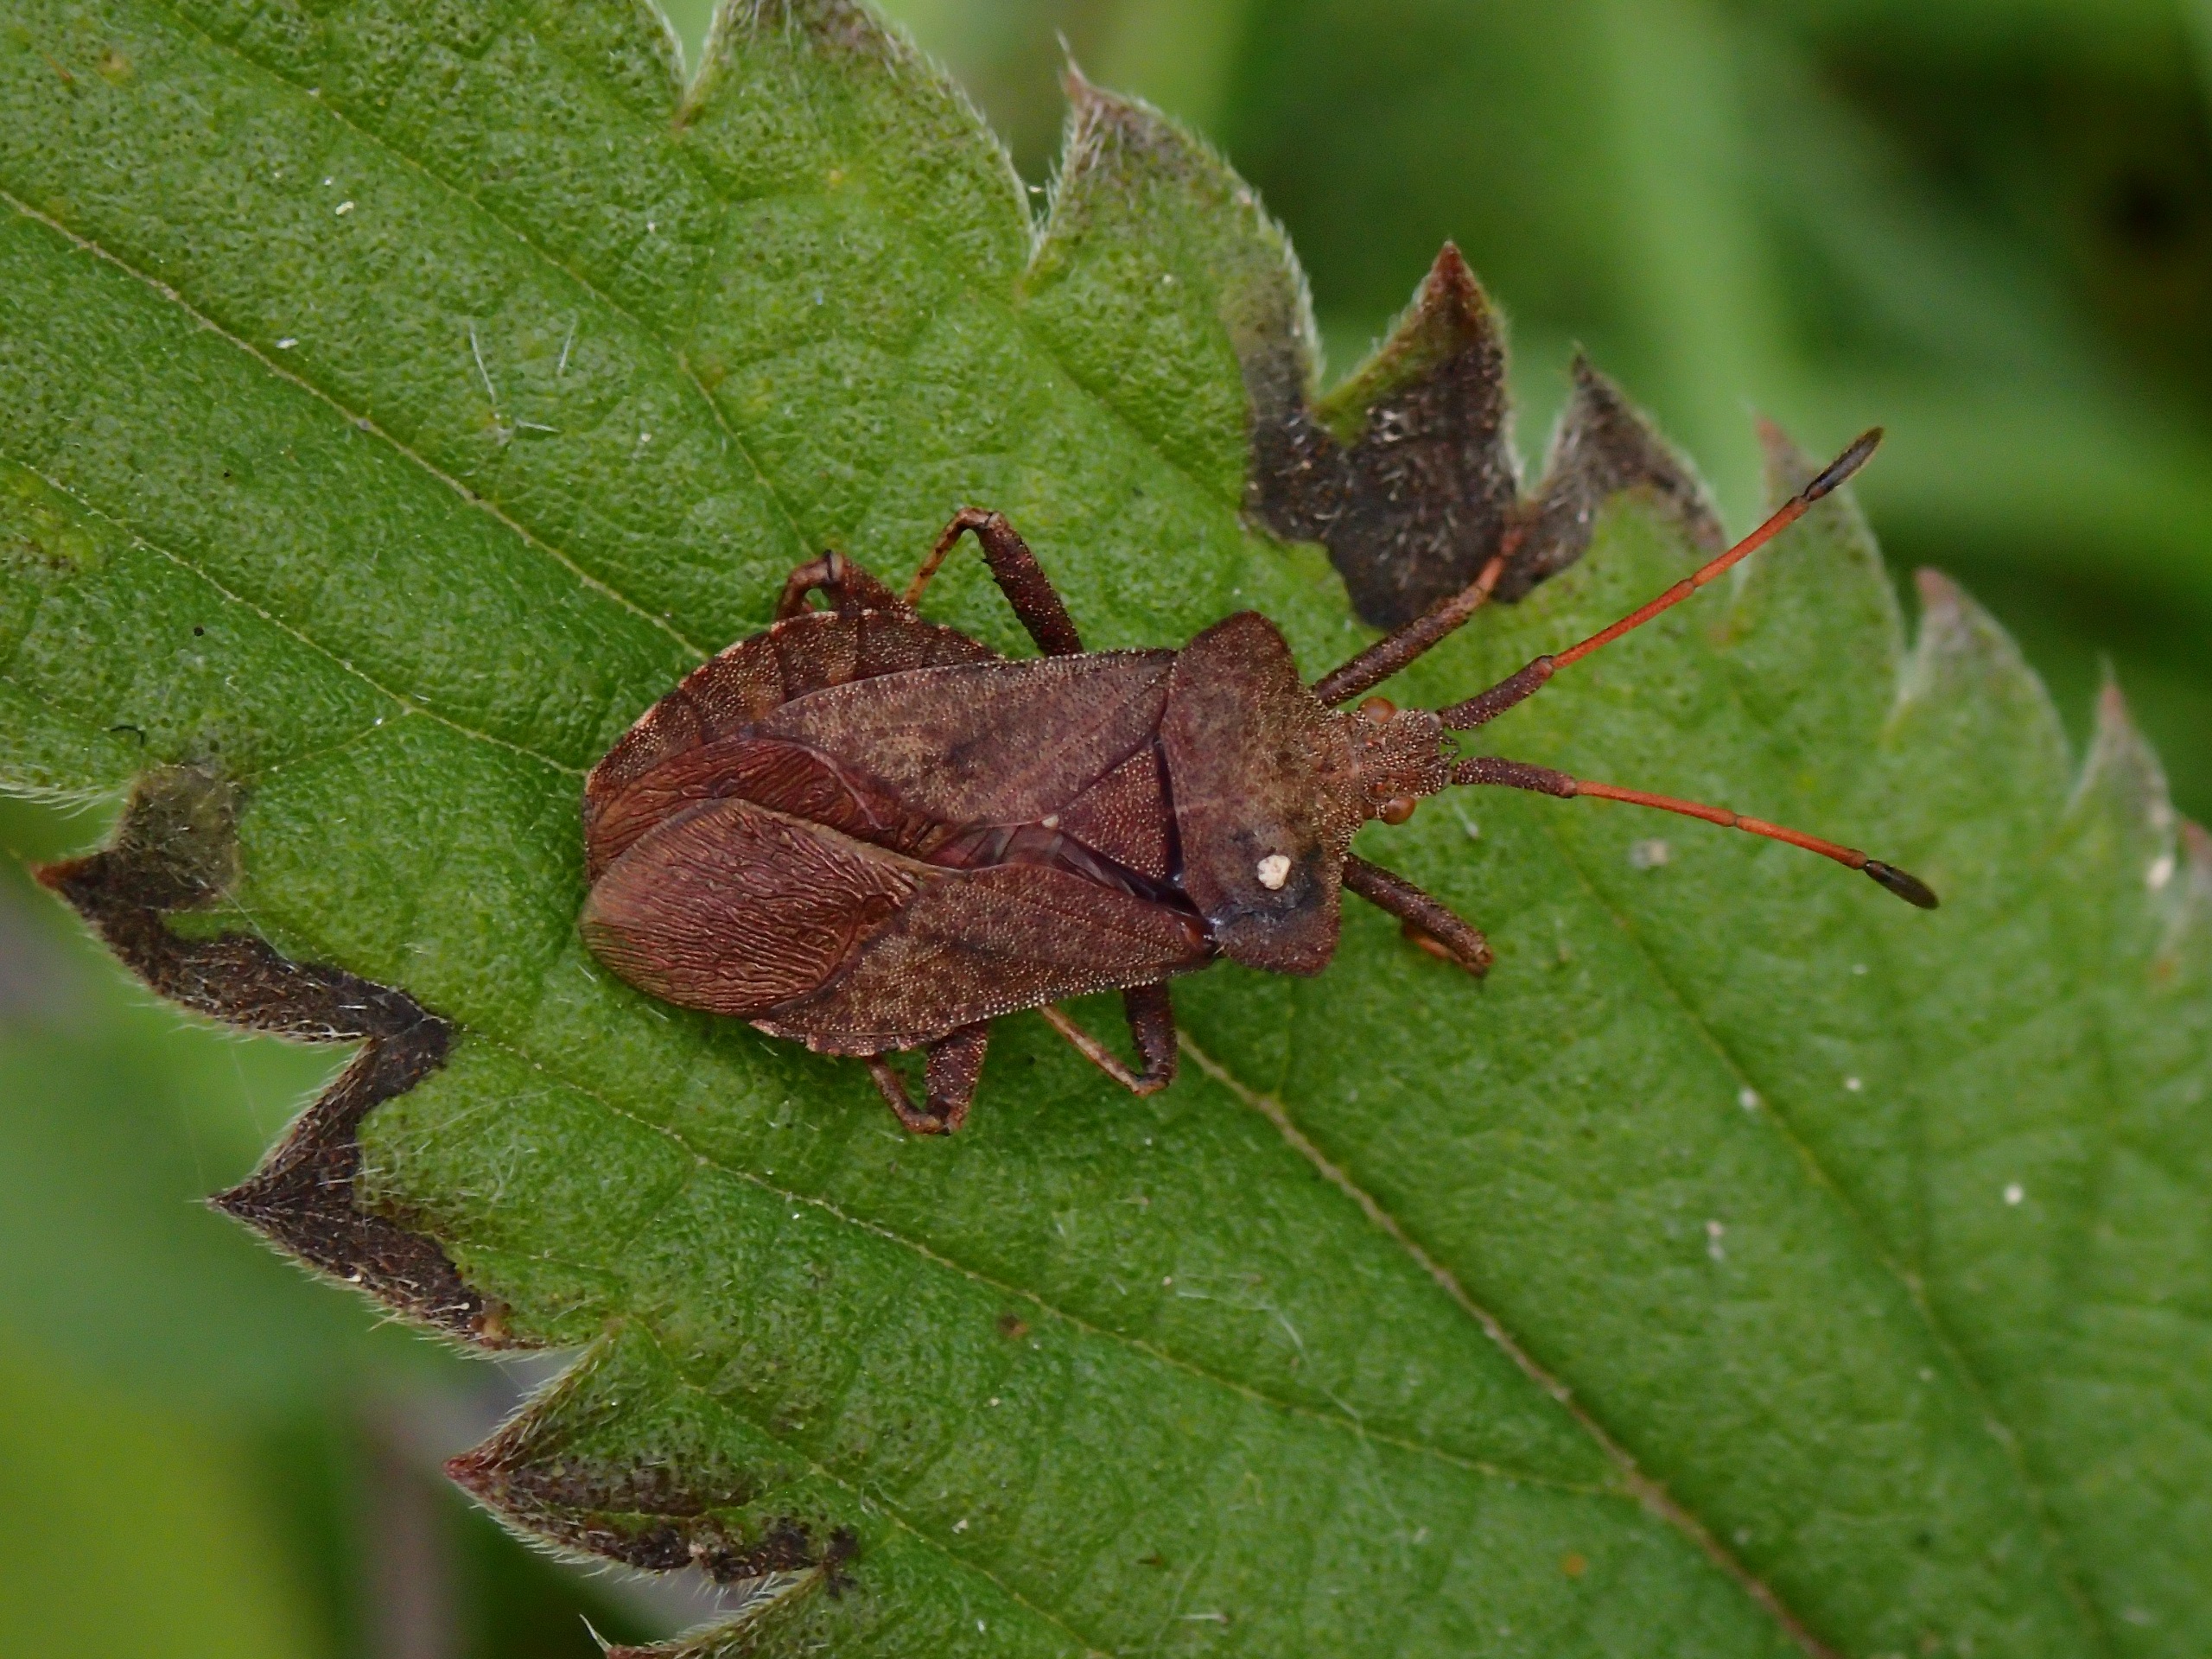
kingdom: Animalia
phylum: Arthropoda
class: Insecta
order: Hemiptera
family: Coreidae
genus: Coreus
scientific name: Coreus marginatus
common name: Skræppetæge
